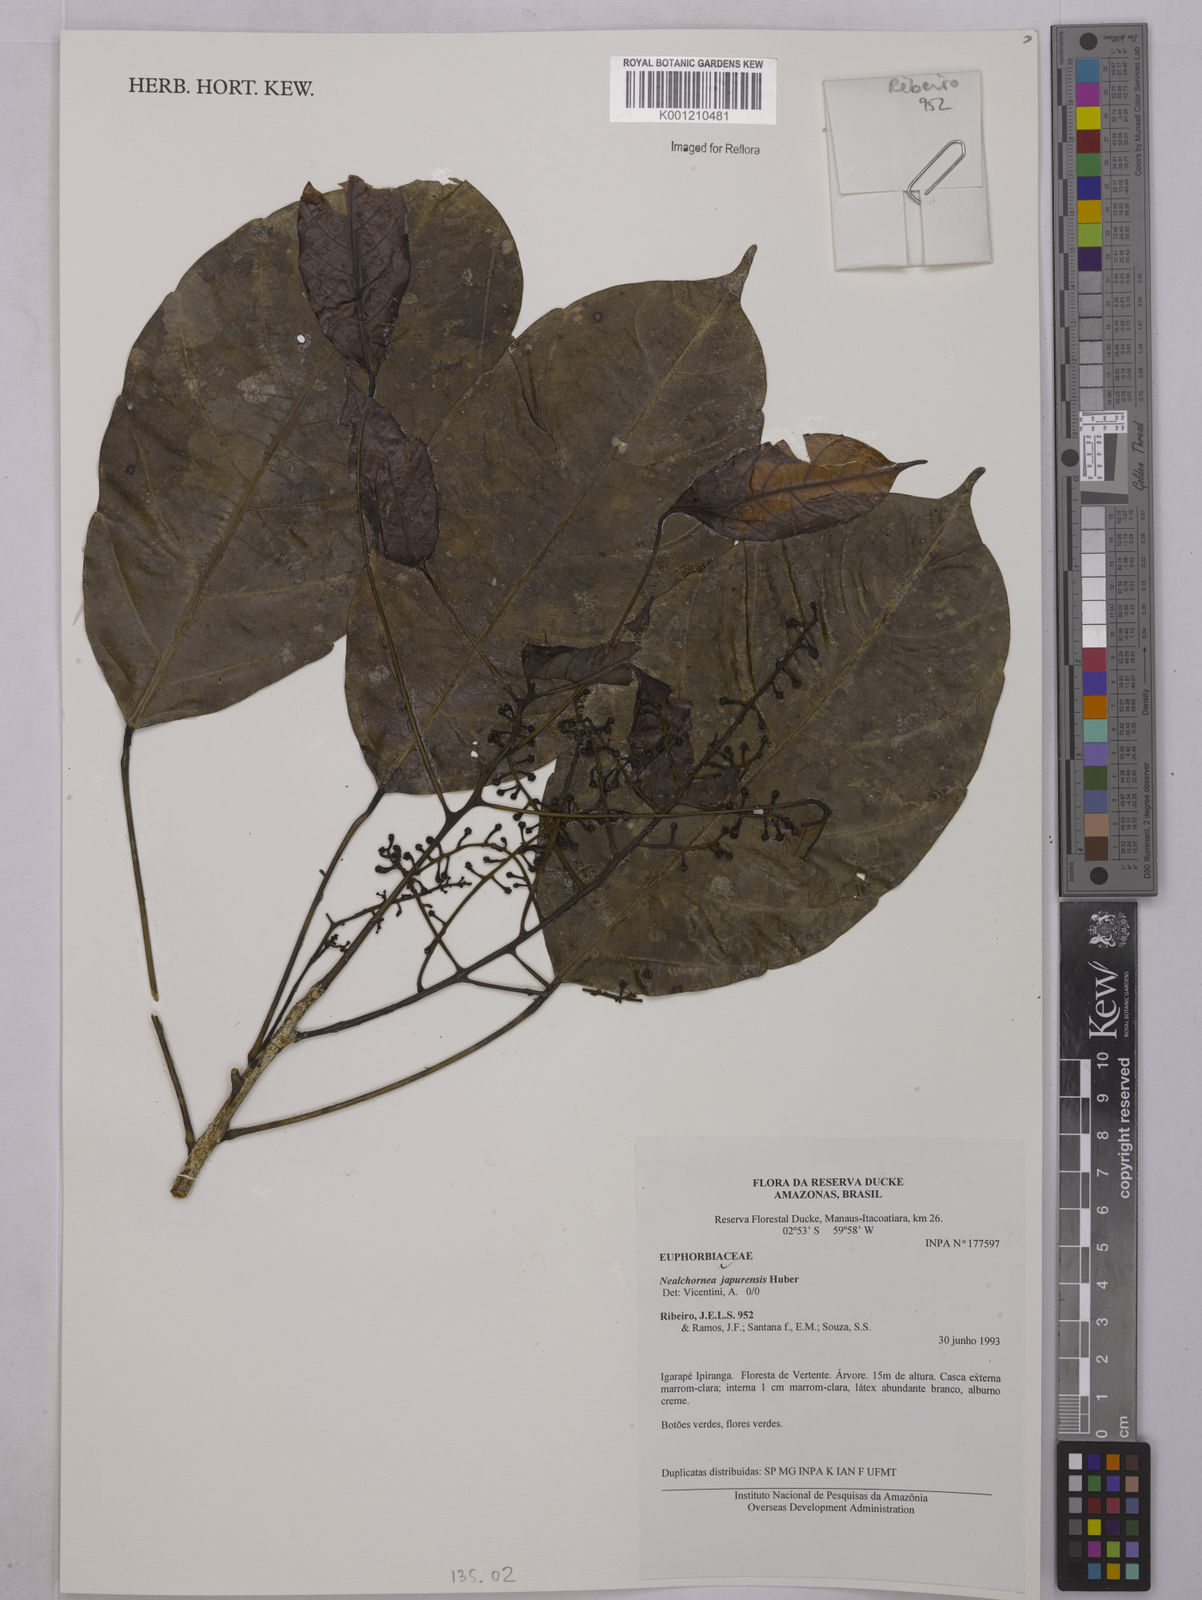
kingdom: Plantae
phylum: Tracheophyta
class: Magnoliopsida
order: Malpighiales
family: Euphorbiaceae
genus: Nealchornea
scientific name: Nealchornea yapurensis
